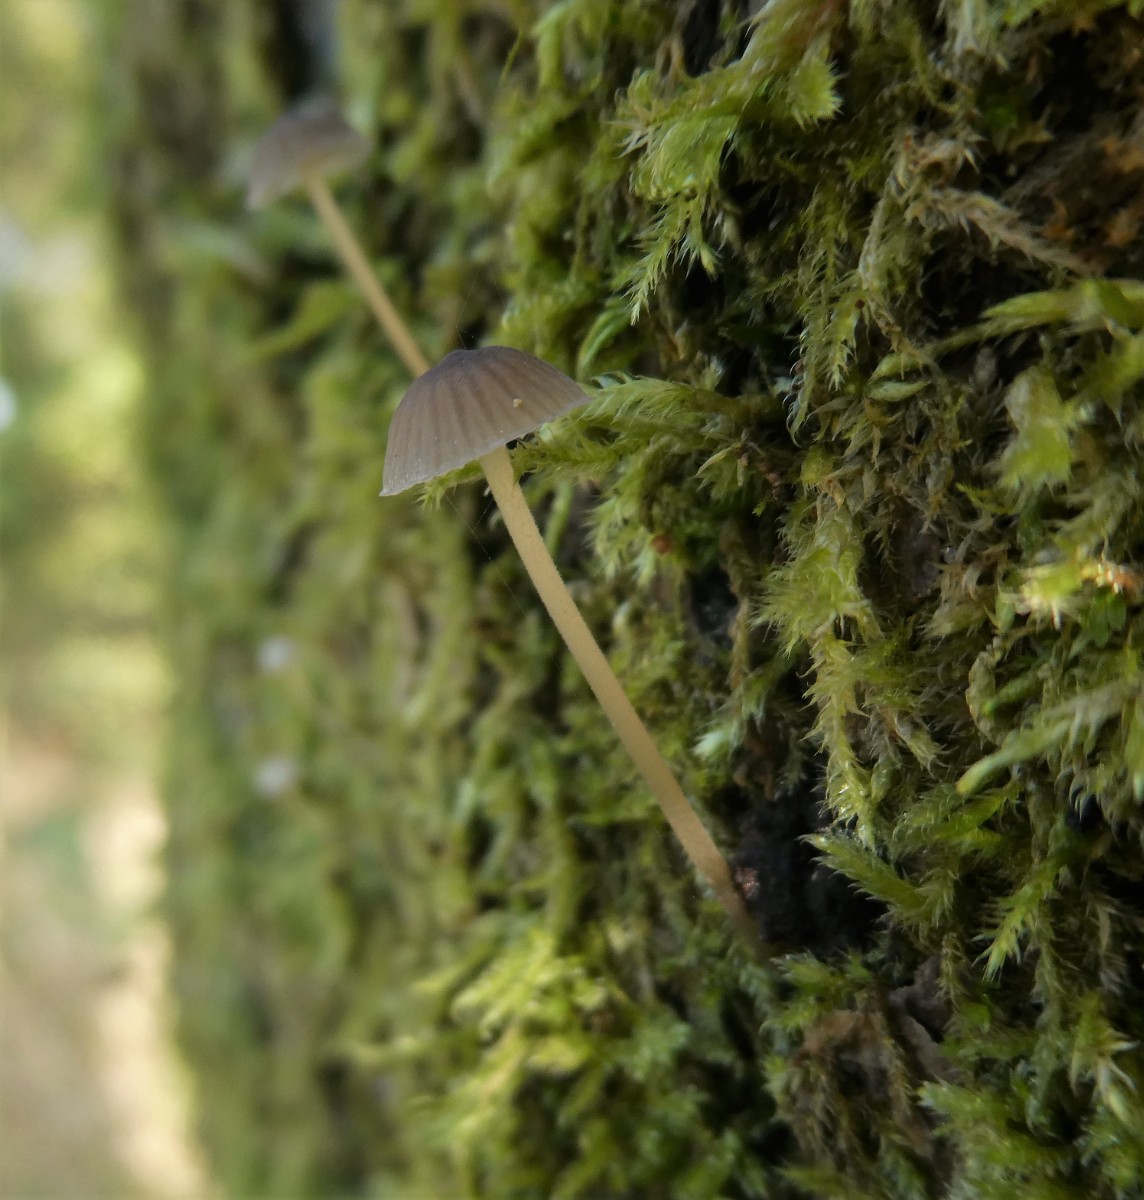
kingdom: Fungi
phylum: Basidiomycota
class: Agaricomycetes
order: Agaricales
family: Porotheleaceae
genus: Phloeomana
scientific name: Phloeomana speirea
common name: kvist-huesvamp
